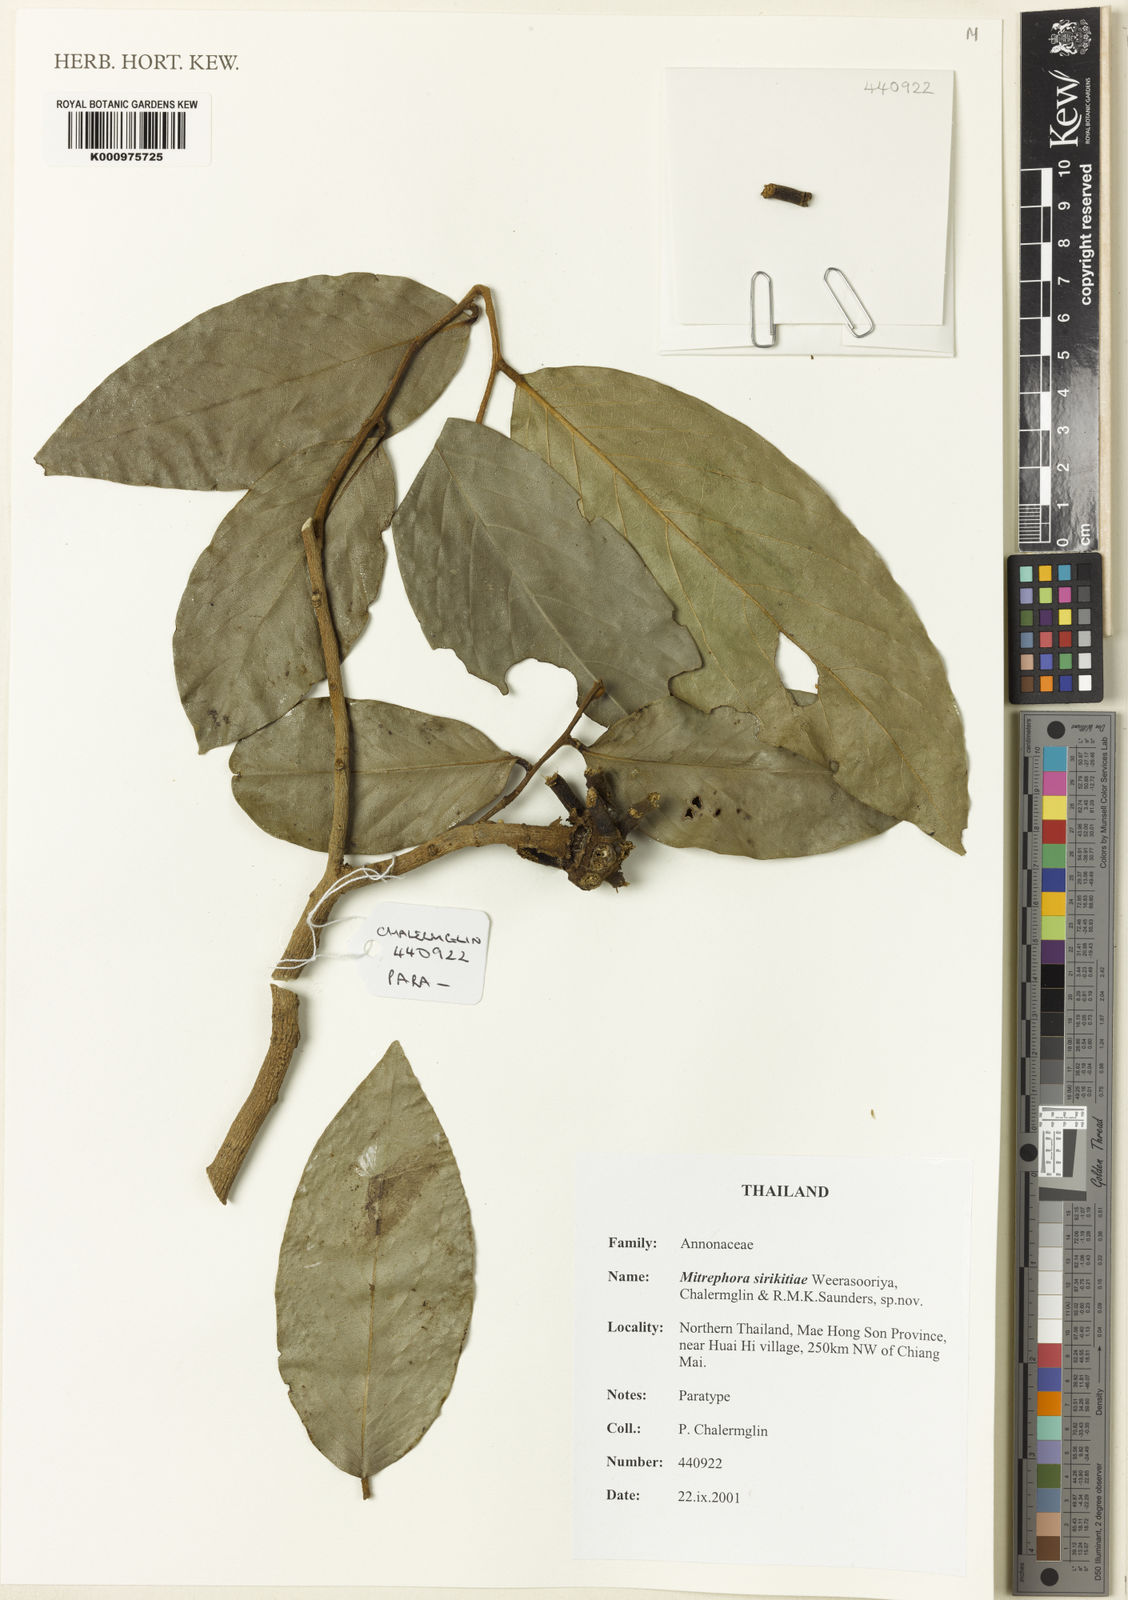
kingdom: Plantae
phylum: Tracheophyta
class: Magnoliopsida
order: Magnoliales
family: Annonaceae
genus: Mitrephora
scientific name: Mitrephora sirikitiae
